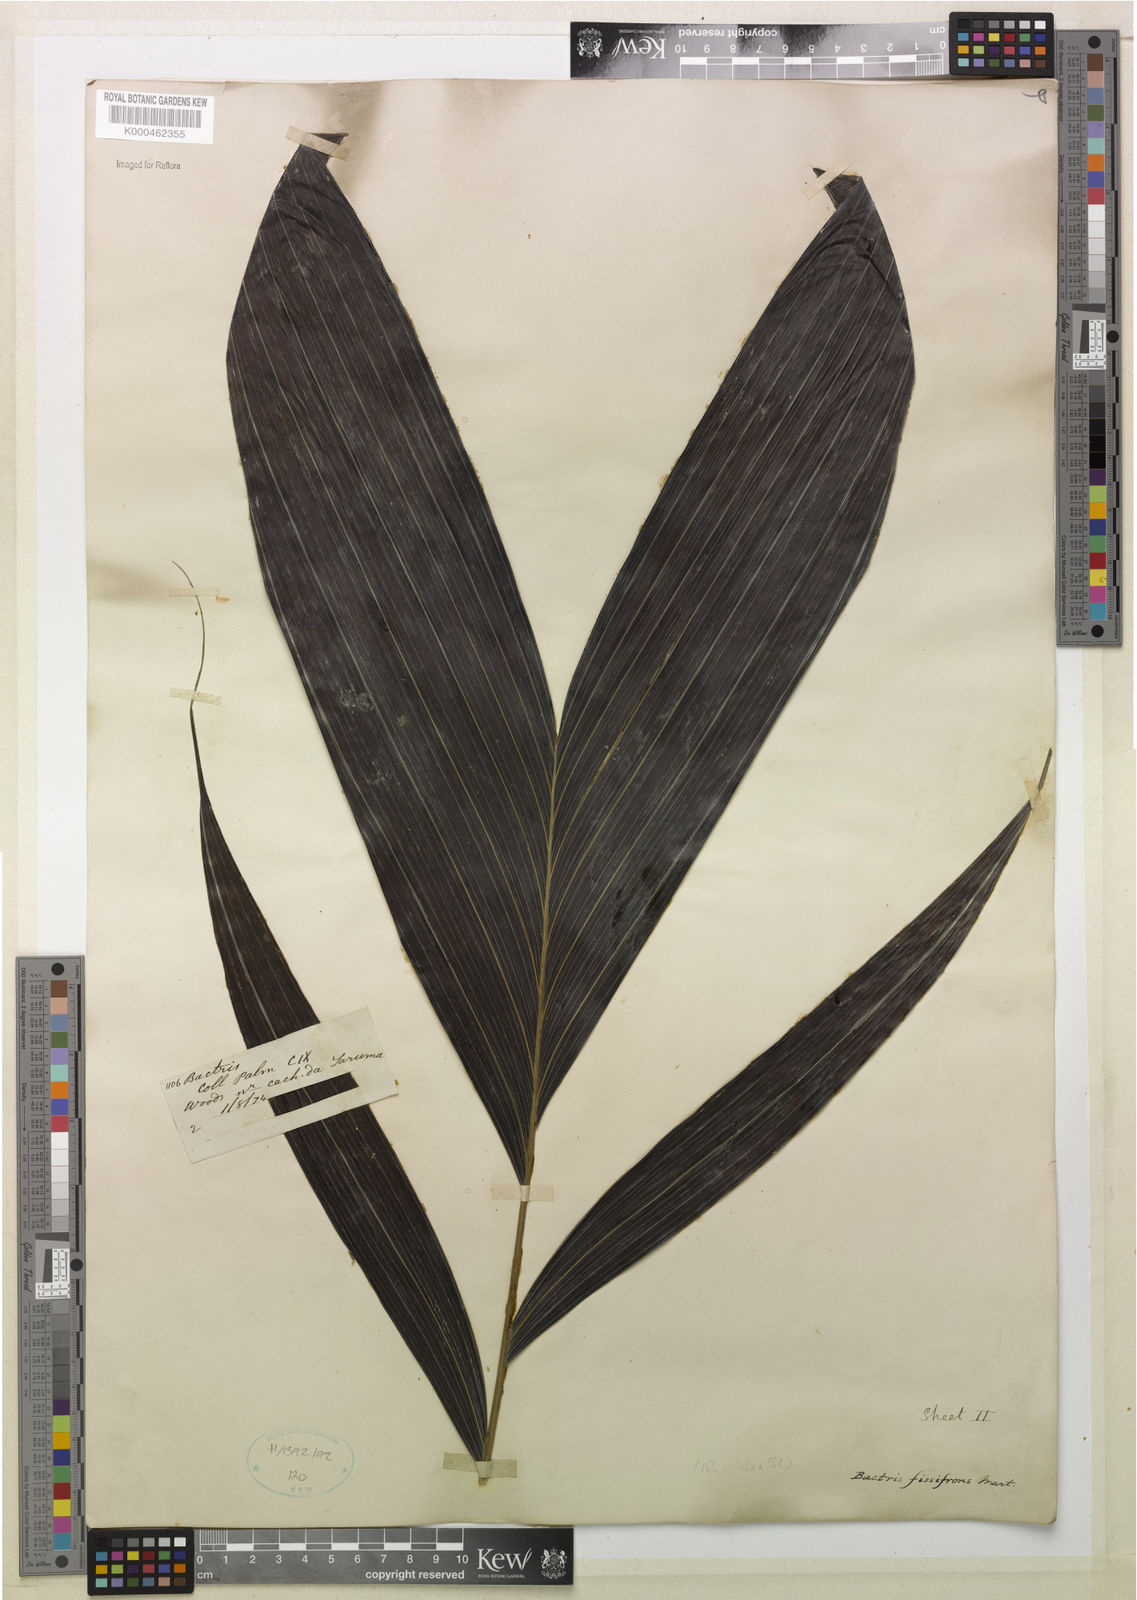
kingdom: Plantae
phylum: Tracheophyta
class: Liliopsida
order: Arecales
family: Arecaceae
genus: Bactris
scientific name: Bactris fissifrons
